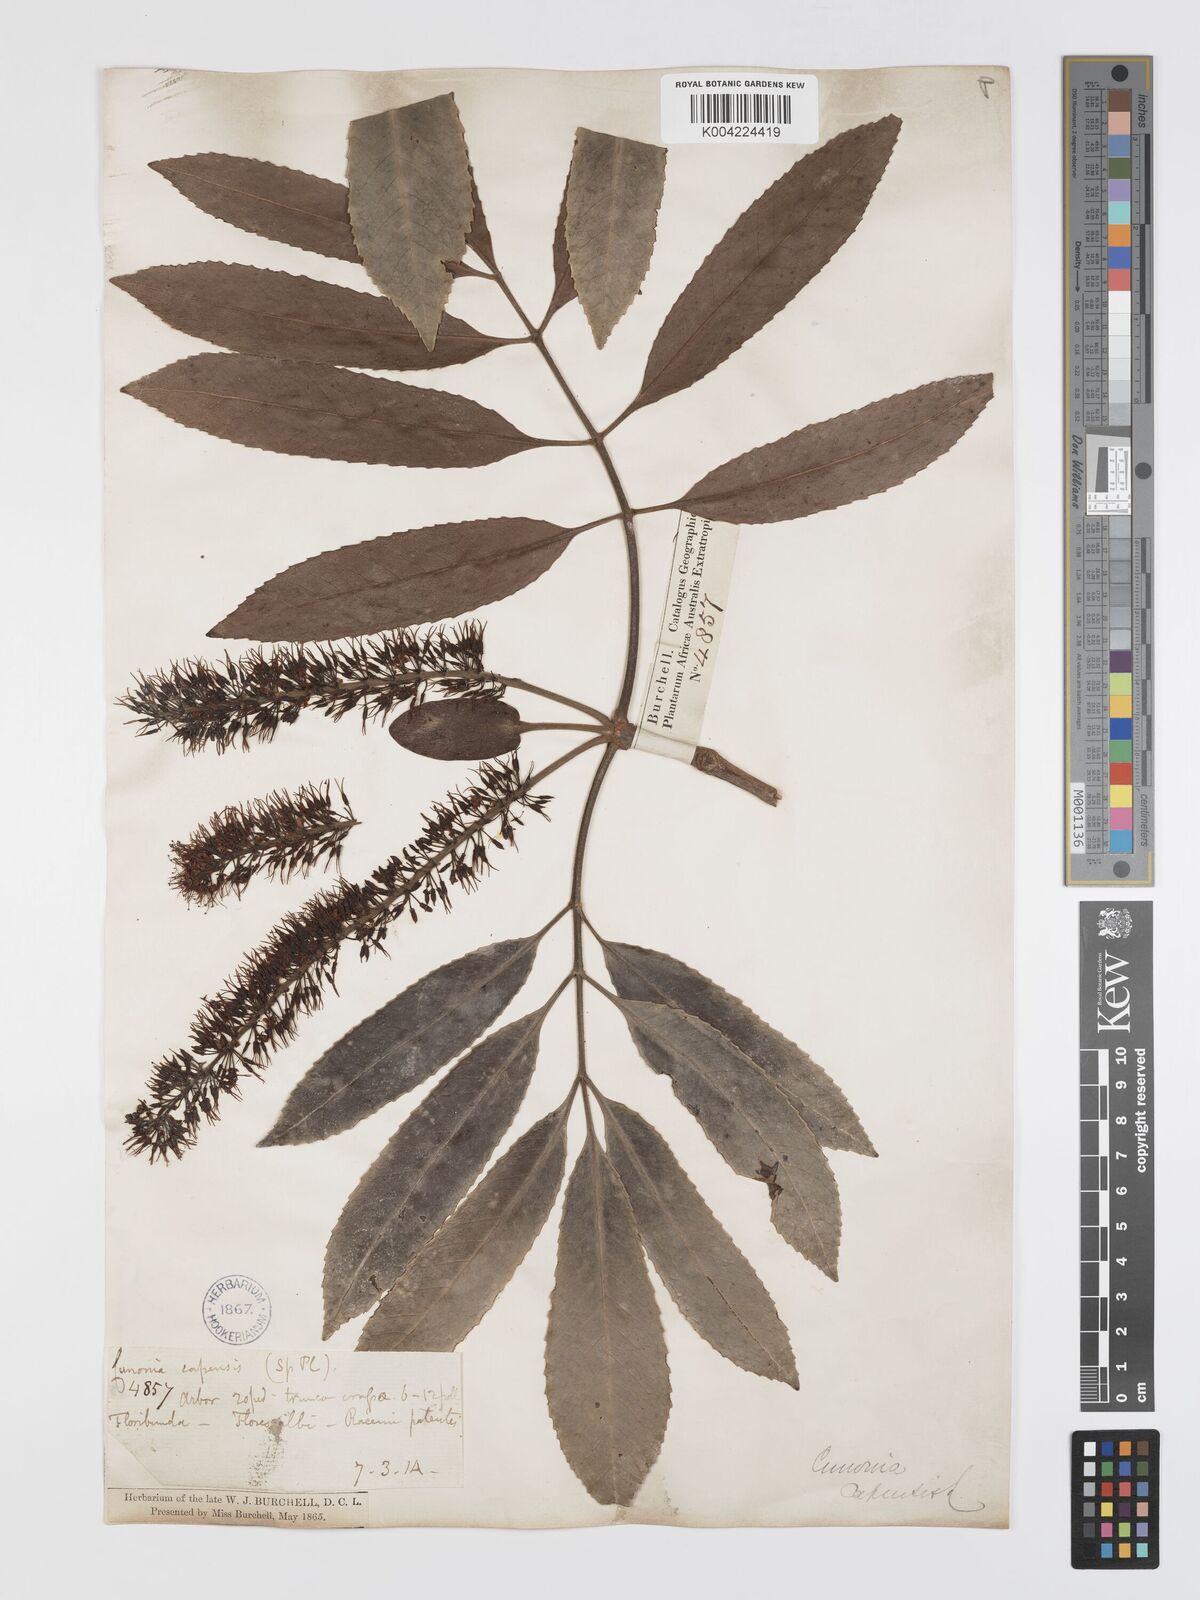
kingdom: Plantae
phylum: Tracheophyta
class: Magnoliopsida
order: Oxalidales
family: Cunoniaceae
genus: Cunonia
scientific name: Cunonia capensis
